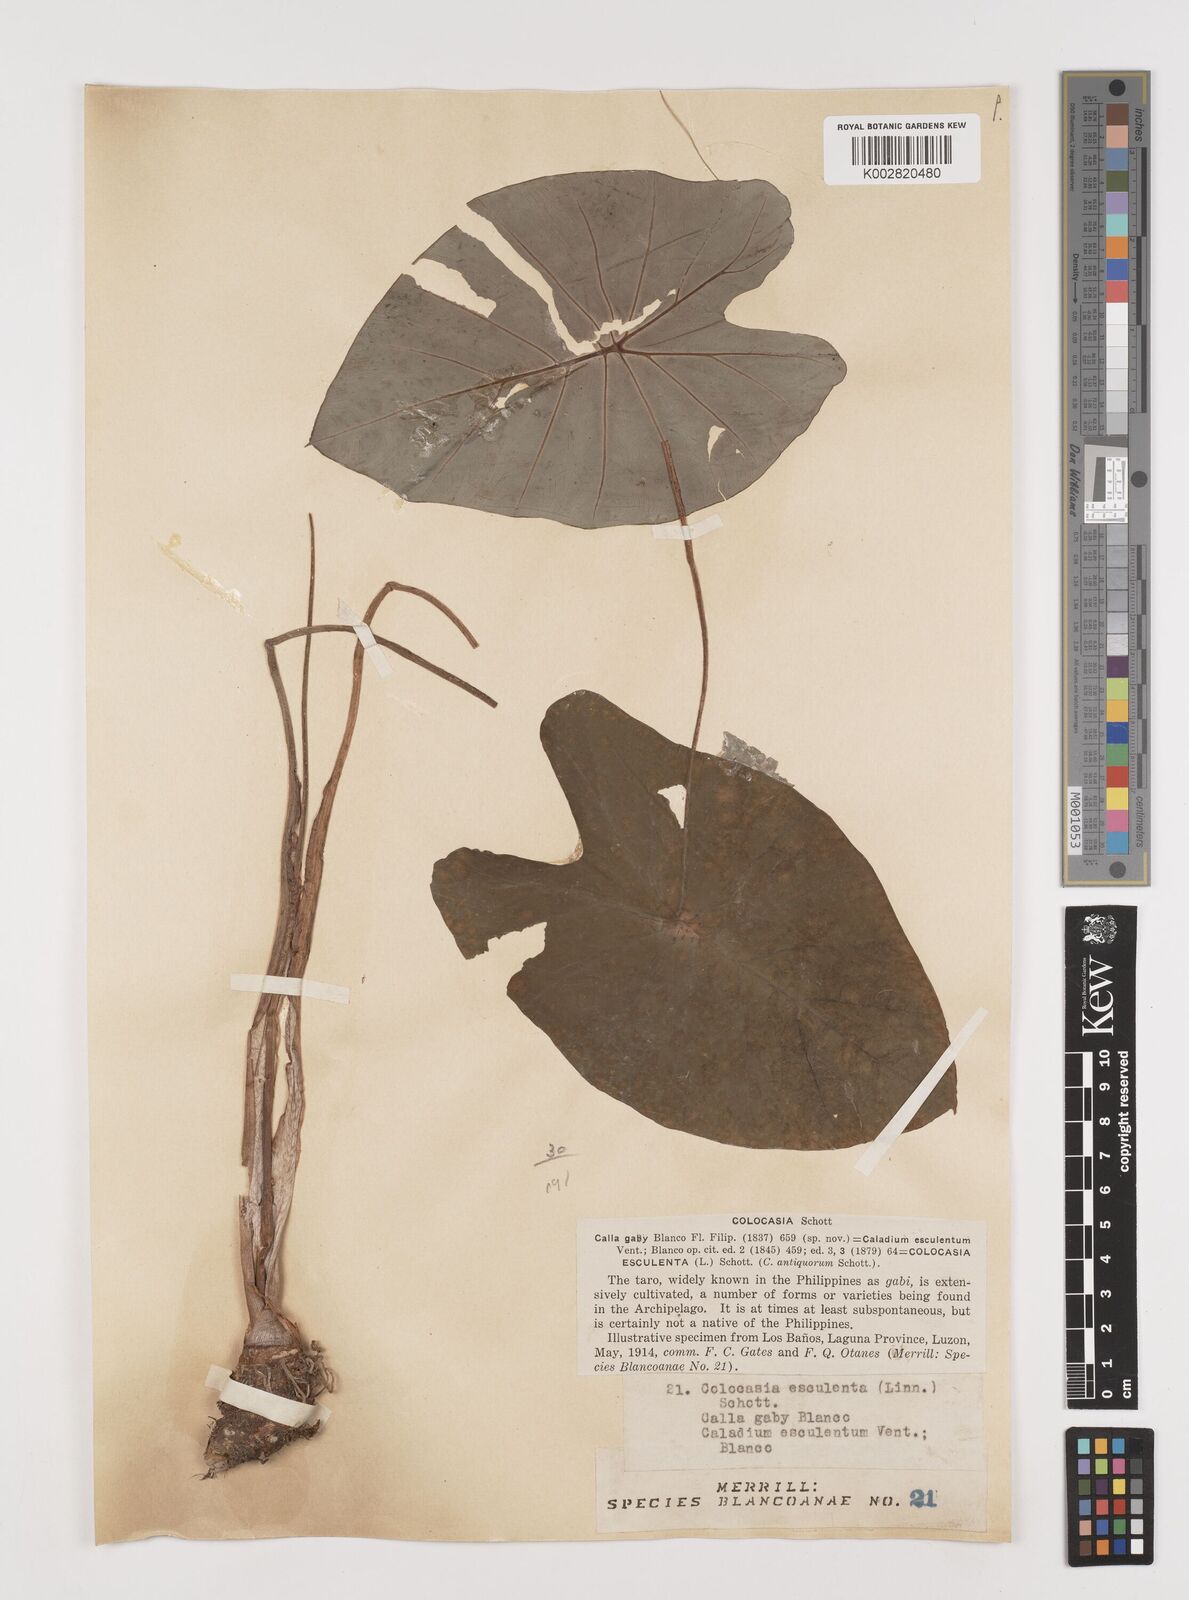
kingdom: Plantae
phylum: Tracheophyta
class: Liliopsida
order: Alismatales
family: Araceae
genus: Colocasia
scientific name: Colocasia esculenta
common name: Taro
